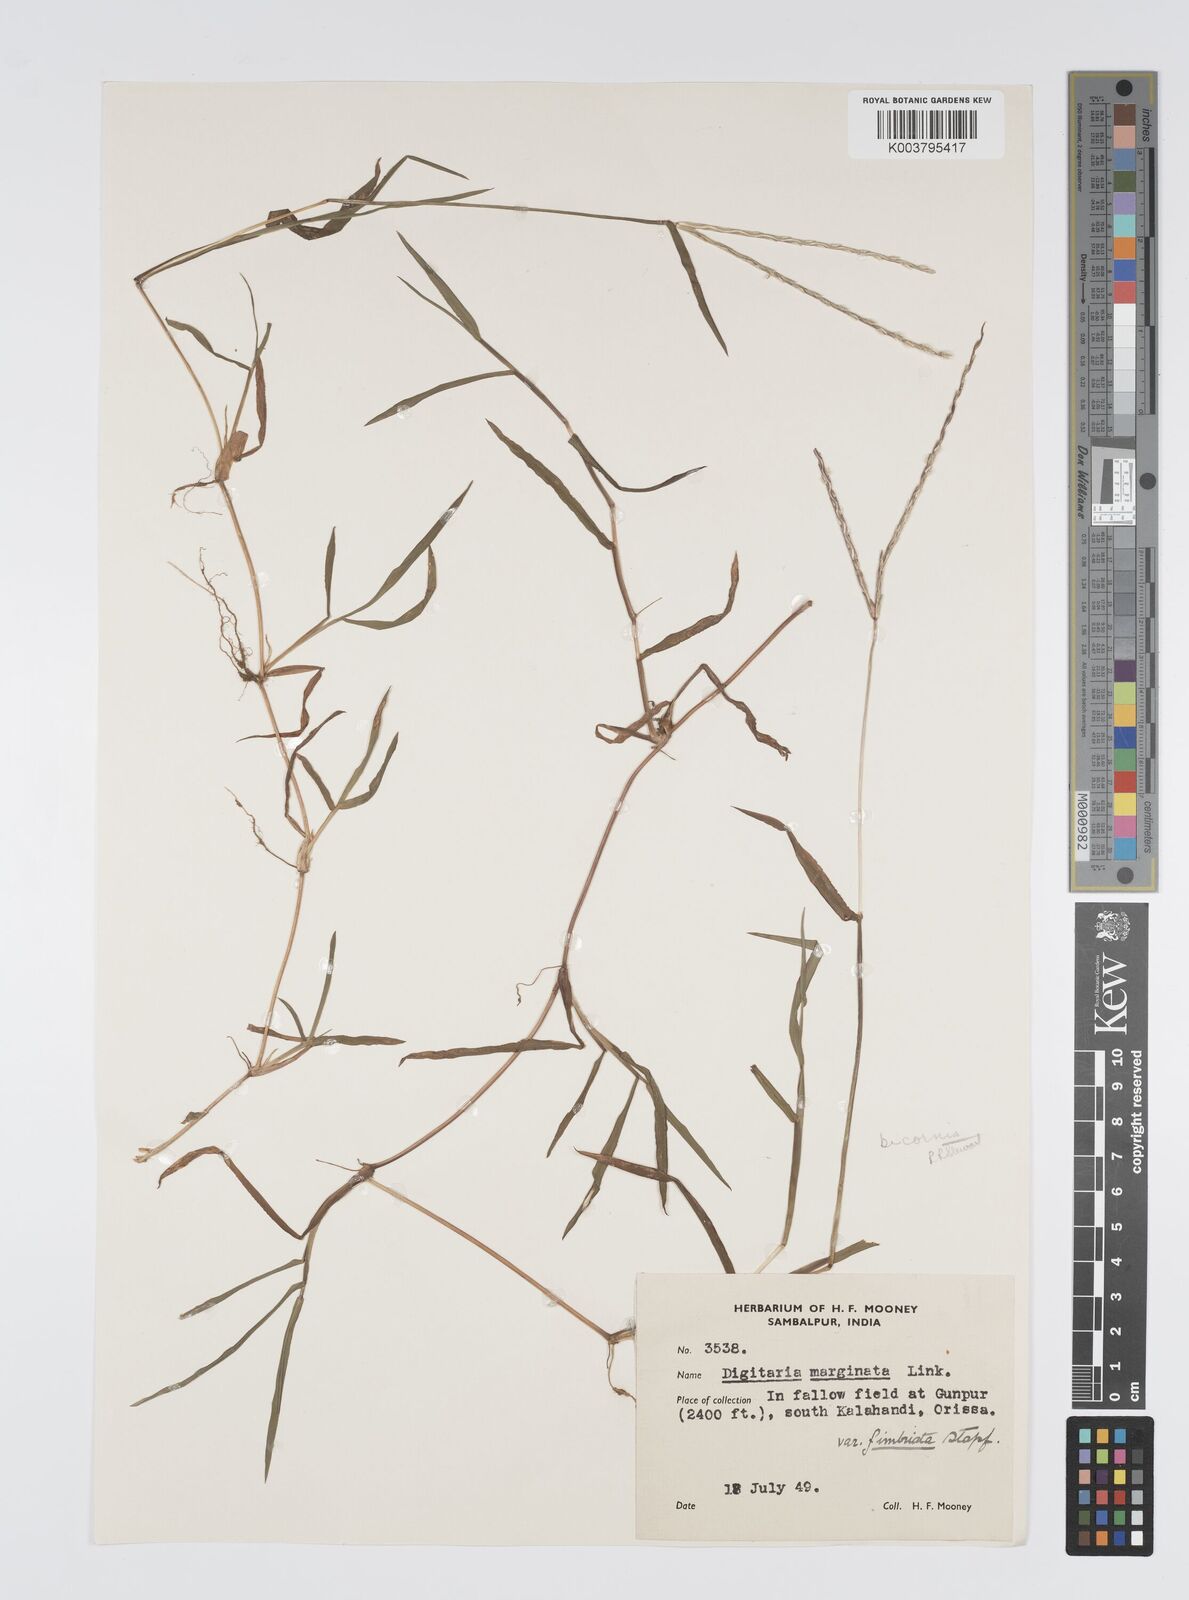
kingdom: Plantae
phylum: Tracheophyta
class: Liliopsida
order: Poales
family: Poaceae
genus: Digitaria
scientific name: Digitaria bicornis
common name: Asian crabgrass
